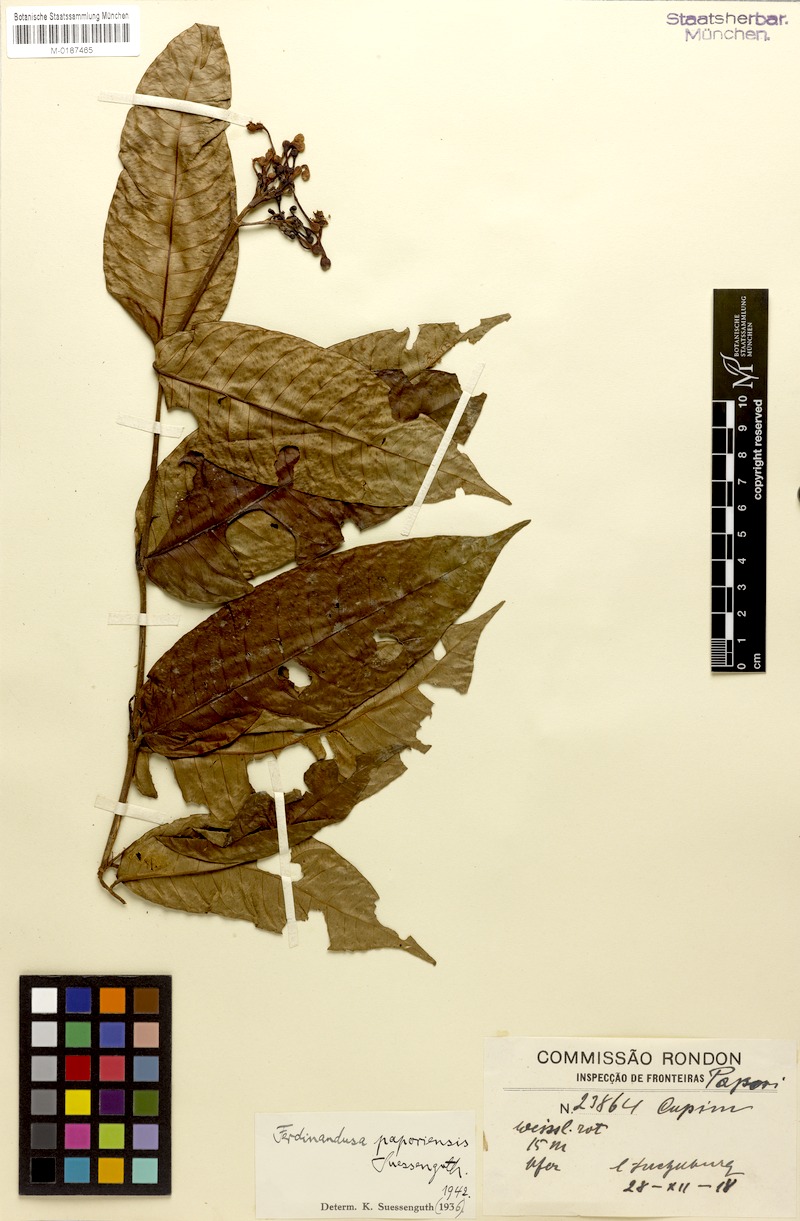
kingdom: Plantae
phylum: Tracheophyta
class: Magnoliopsida
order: Gentianales
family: Rubiaceae
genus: Ferdinandusa
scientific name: Ferdinandusa paporiensis
